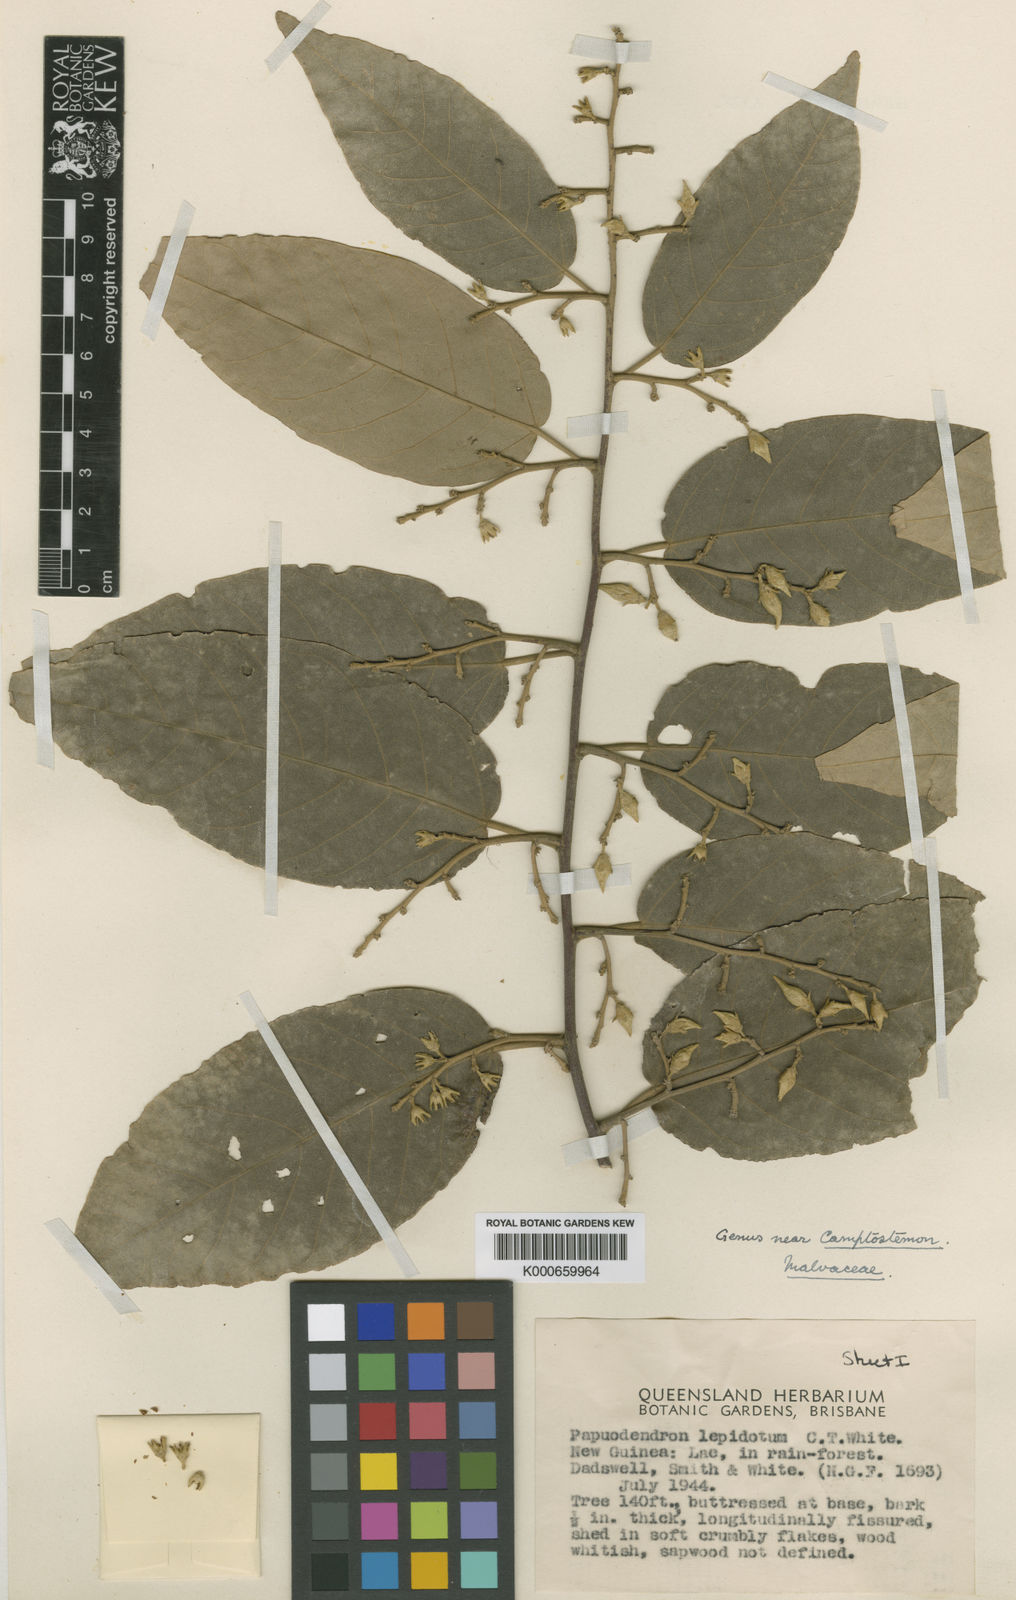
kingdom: Plantae
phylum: Tracheophyta
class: Magnoliopsida
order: Malvales
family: Malvaceae
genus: Papuodendron
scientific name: Papuodendron lepidotum
